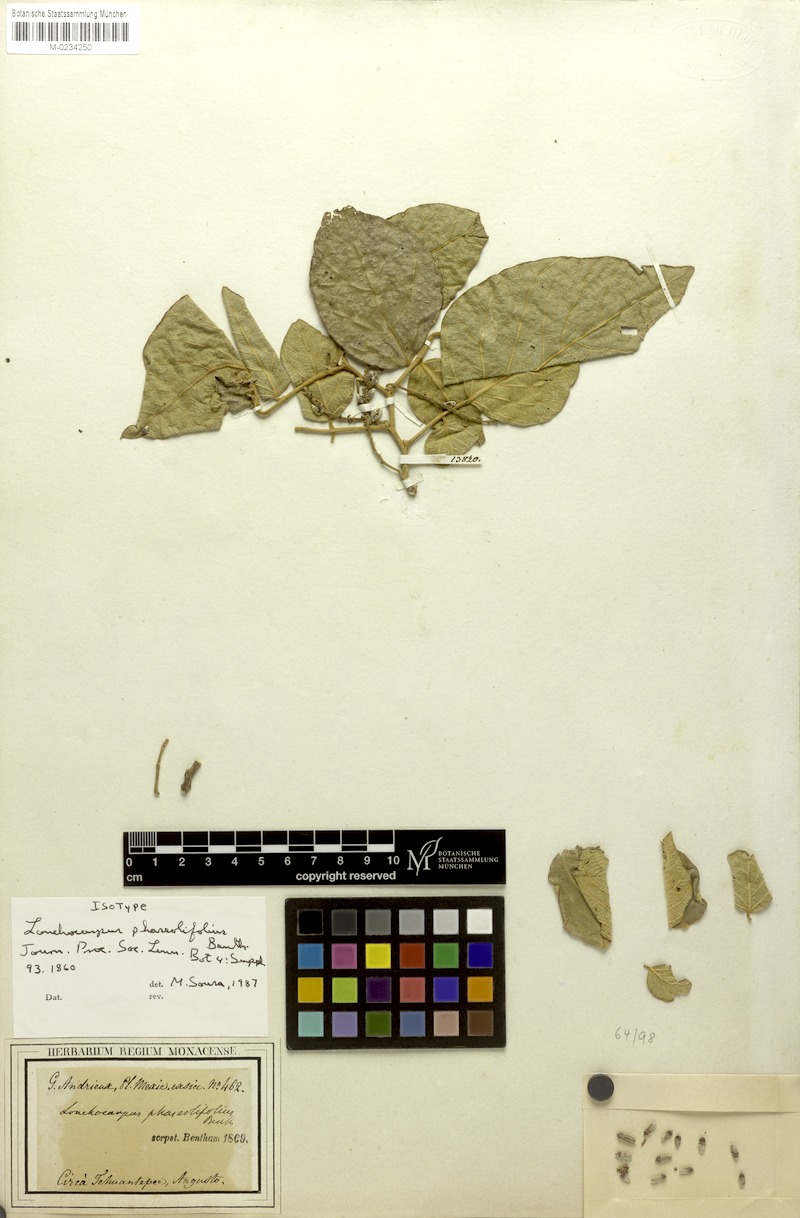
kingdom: Plantae
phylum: Tracheophyta
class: Magnoliopsida
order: Fabales
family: Fabaceae
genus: Lonchocarpus
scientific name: Lonchocarpus phaseolifolius
